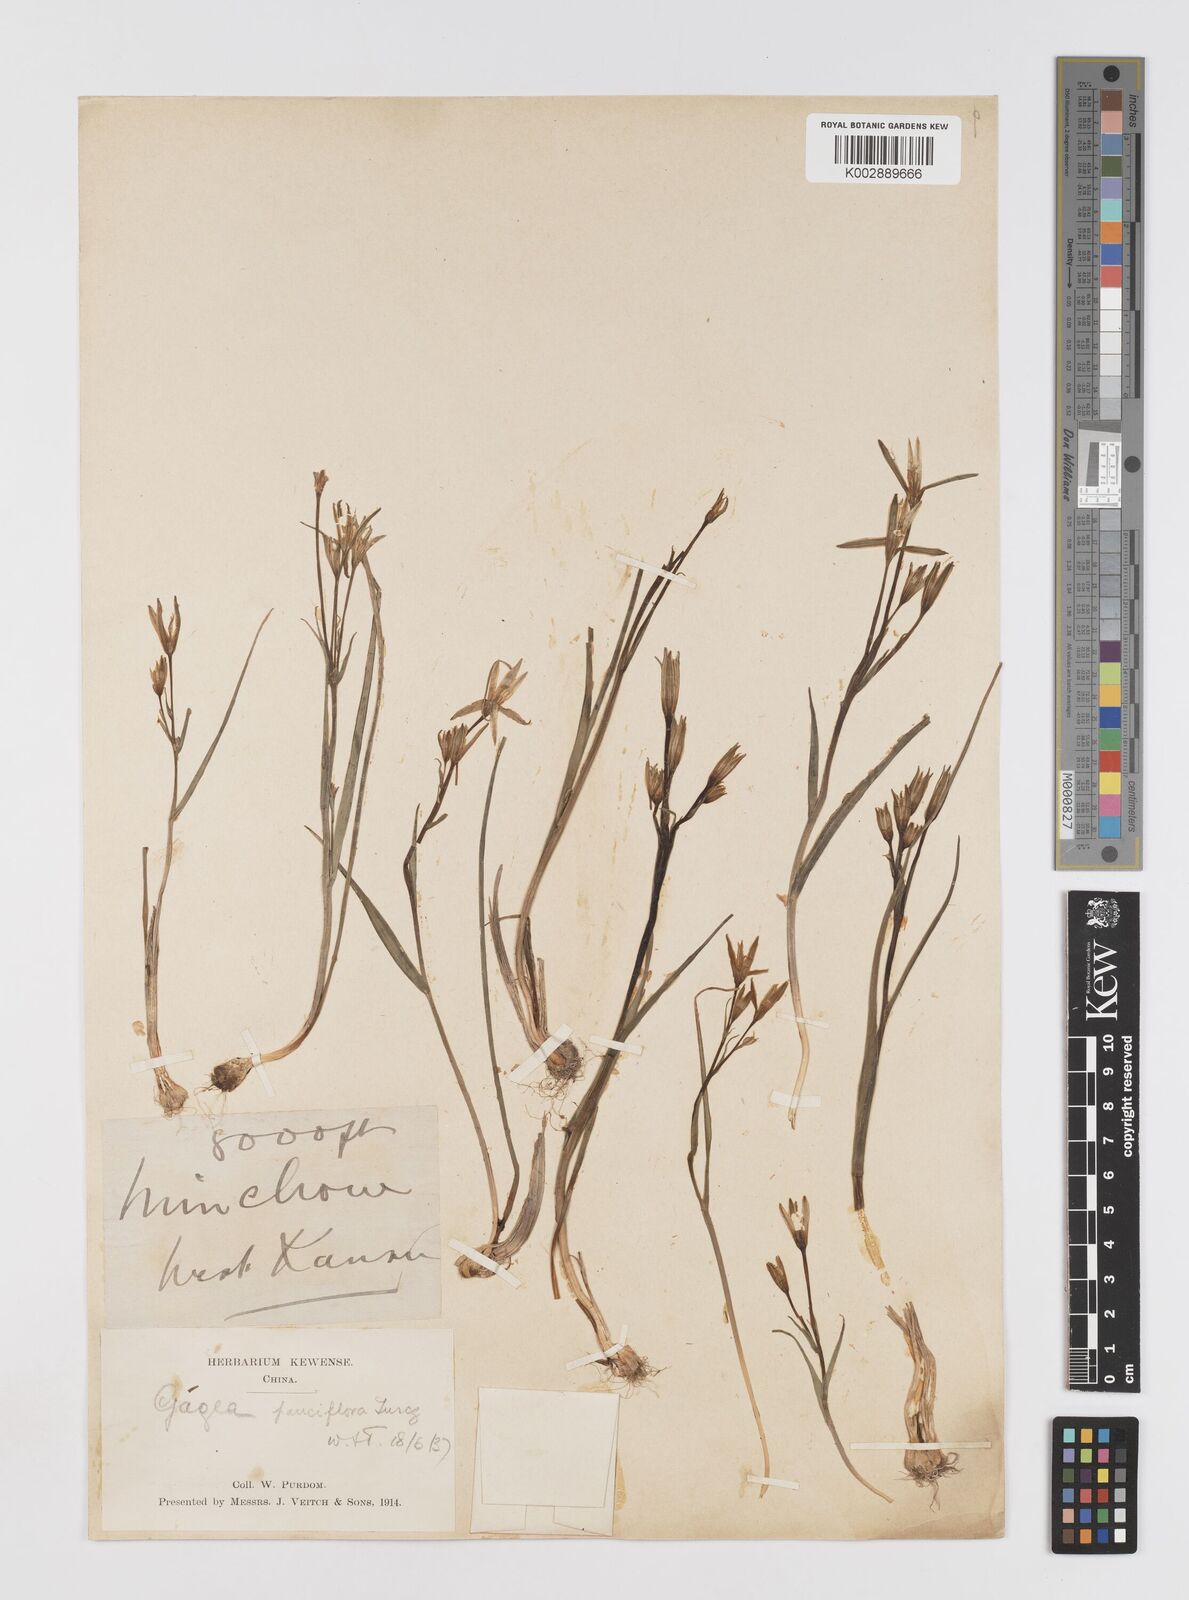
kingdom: Plantae
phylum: Tracheophyta
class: Liliopsida
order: Liliales
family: Liliaceae
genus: Gagea
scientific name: Gagea pauciflora
